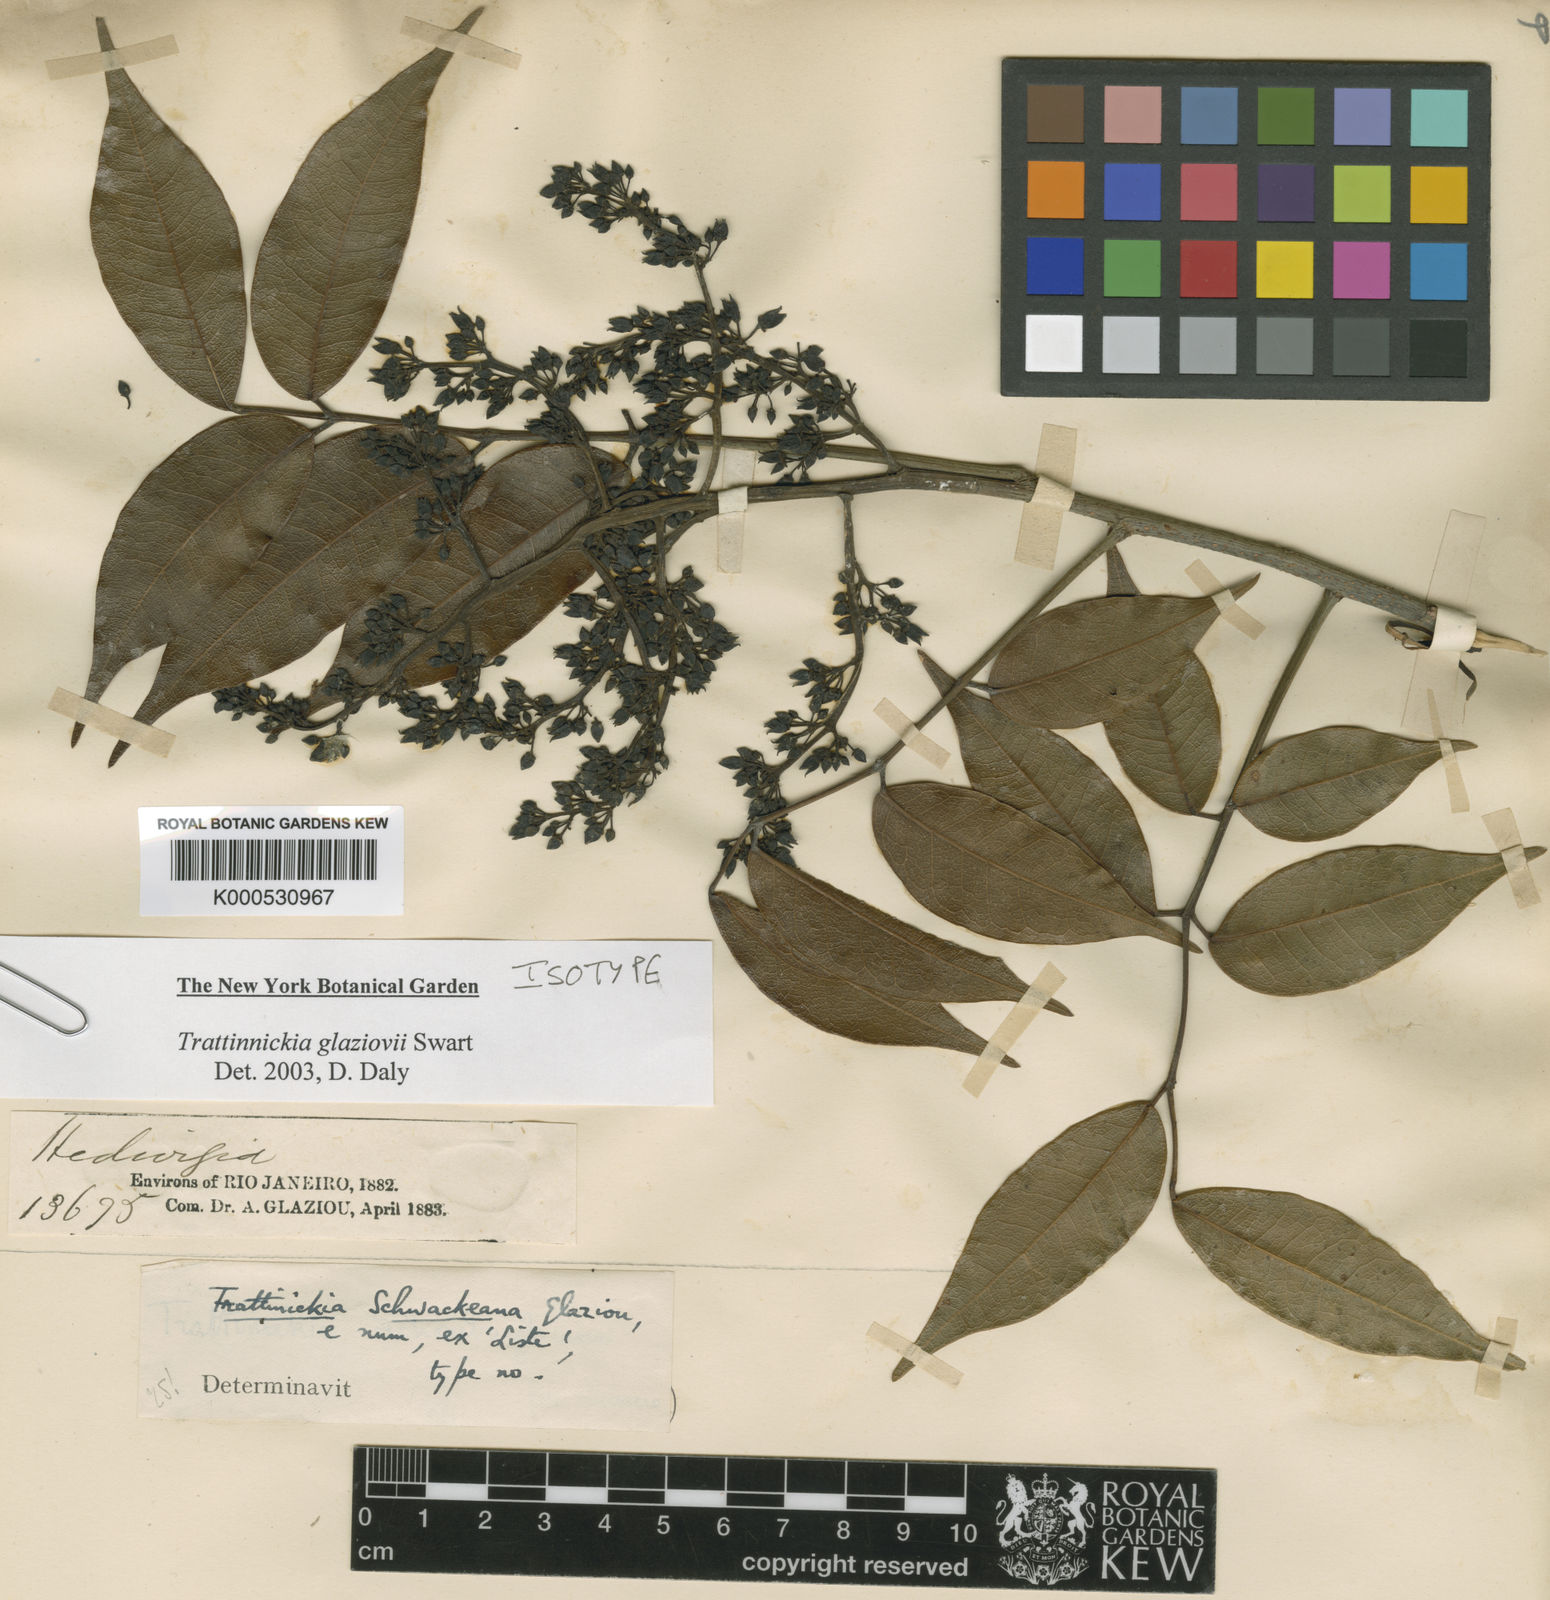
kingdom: Plantae
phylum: Tracheophyta
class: Magnoliopsida
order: Sapindales
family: Burseraceae
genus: Trattinnickia
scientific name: Trattinnickia glaziovii
